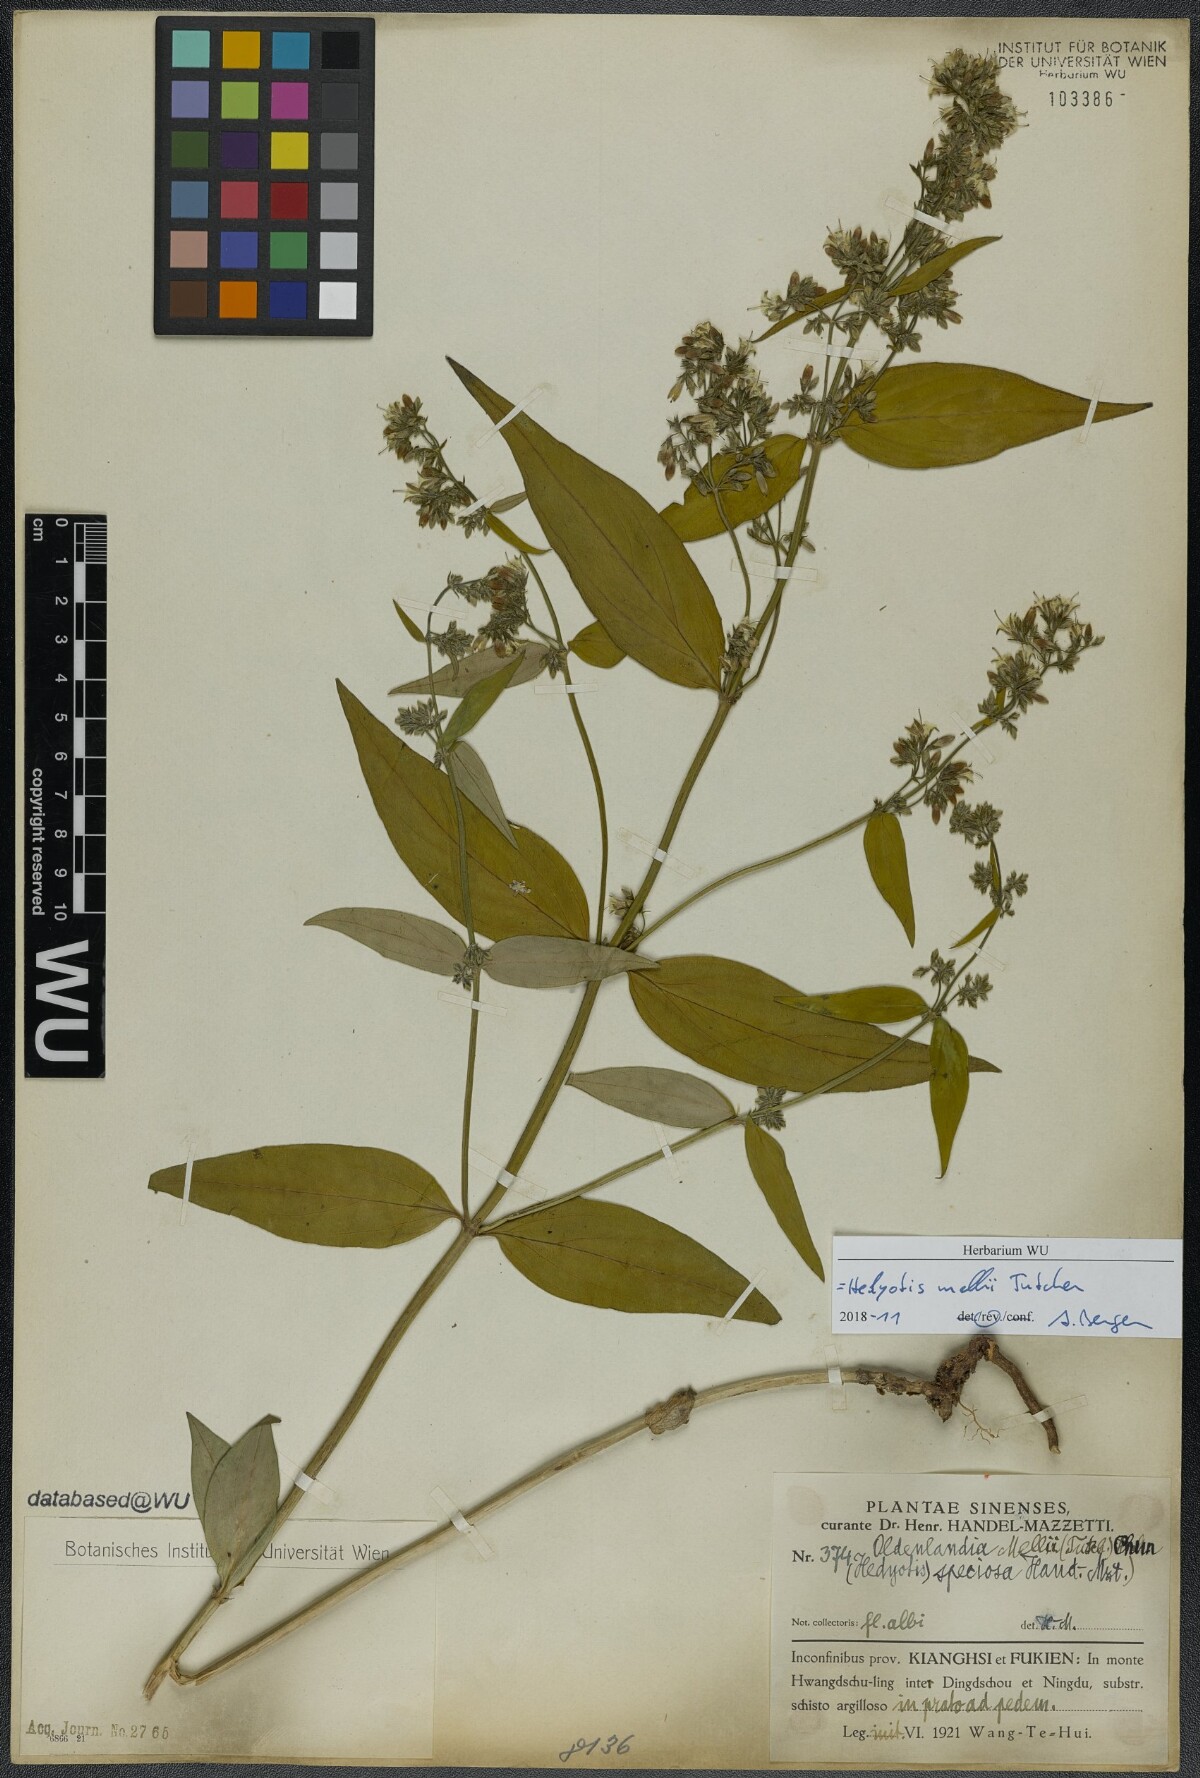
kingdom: Plantae
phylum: Tracheophyta
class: Magnoliopsida
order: Gentianales
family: Rubiaceae
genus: Hedyotis
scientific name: Hedyotis matthewii
